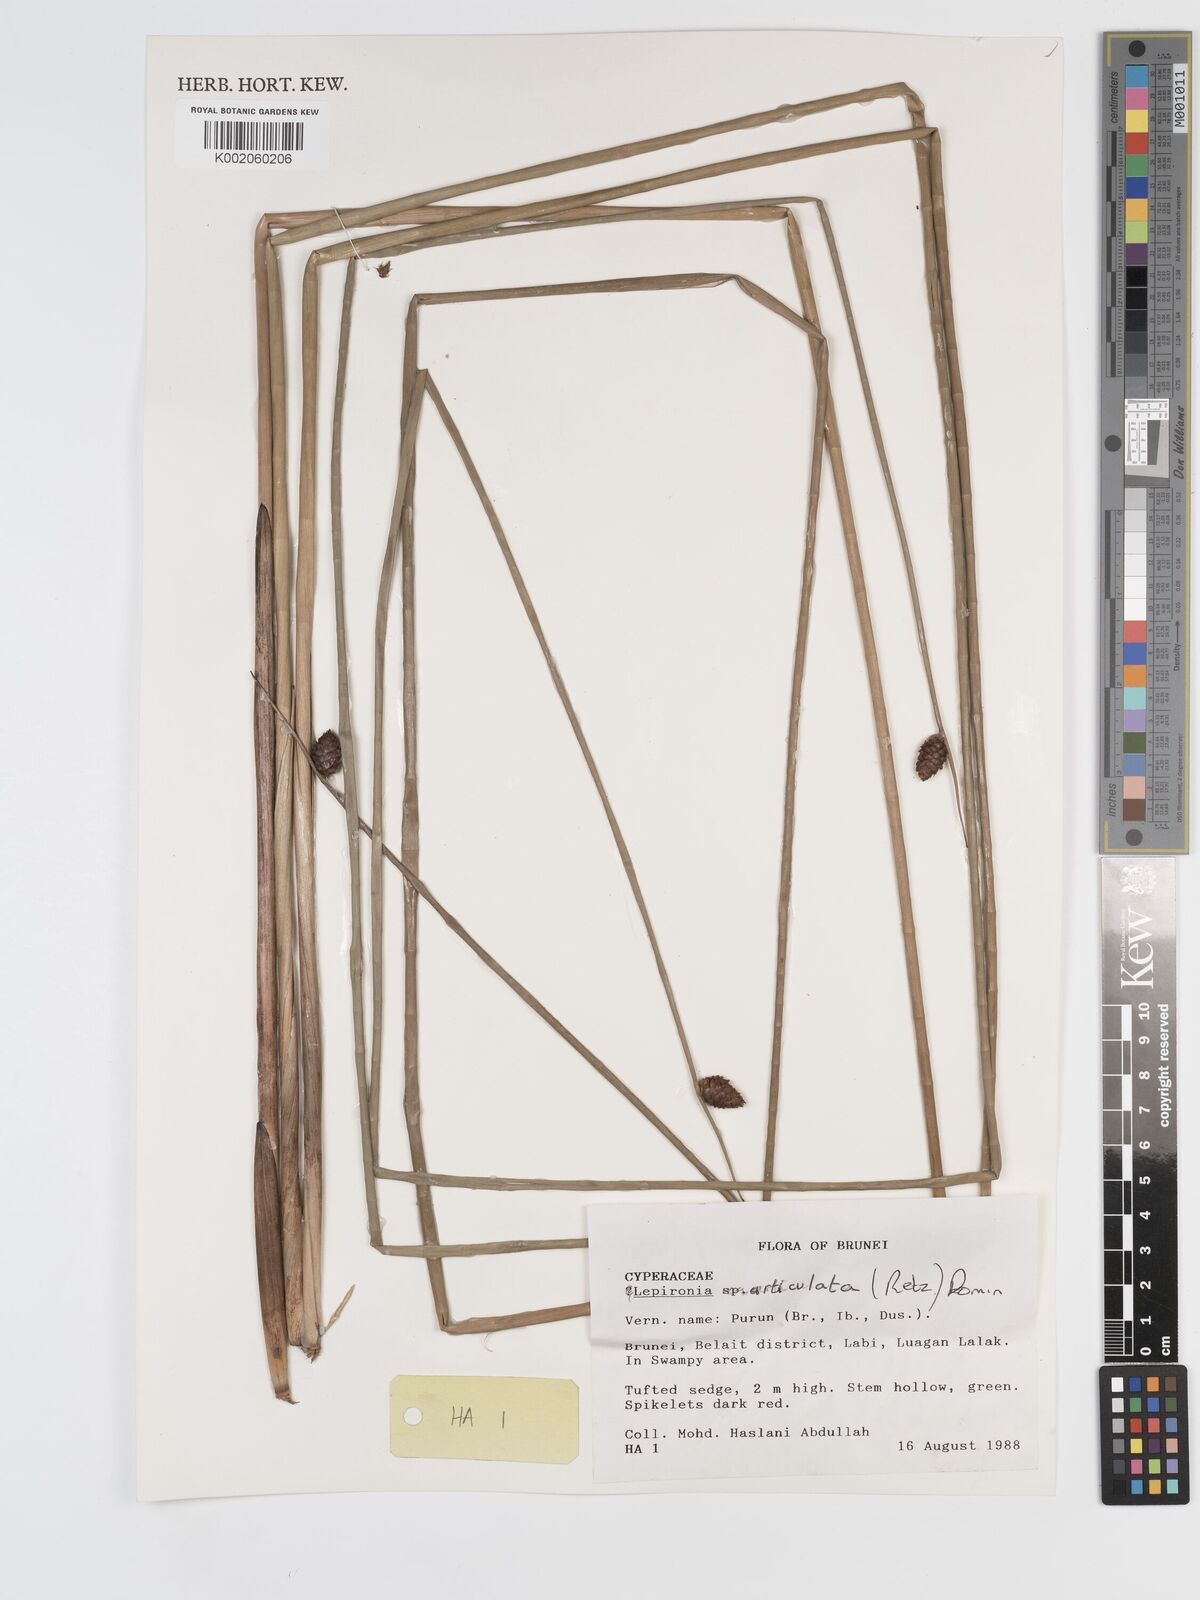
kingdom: Plantae
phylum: Tracheophyta
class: Liliopsida
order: Poales
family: Cyperaceae
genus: Lepironia
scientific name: Lepironia articulata
